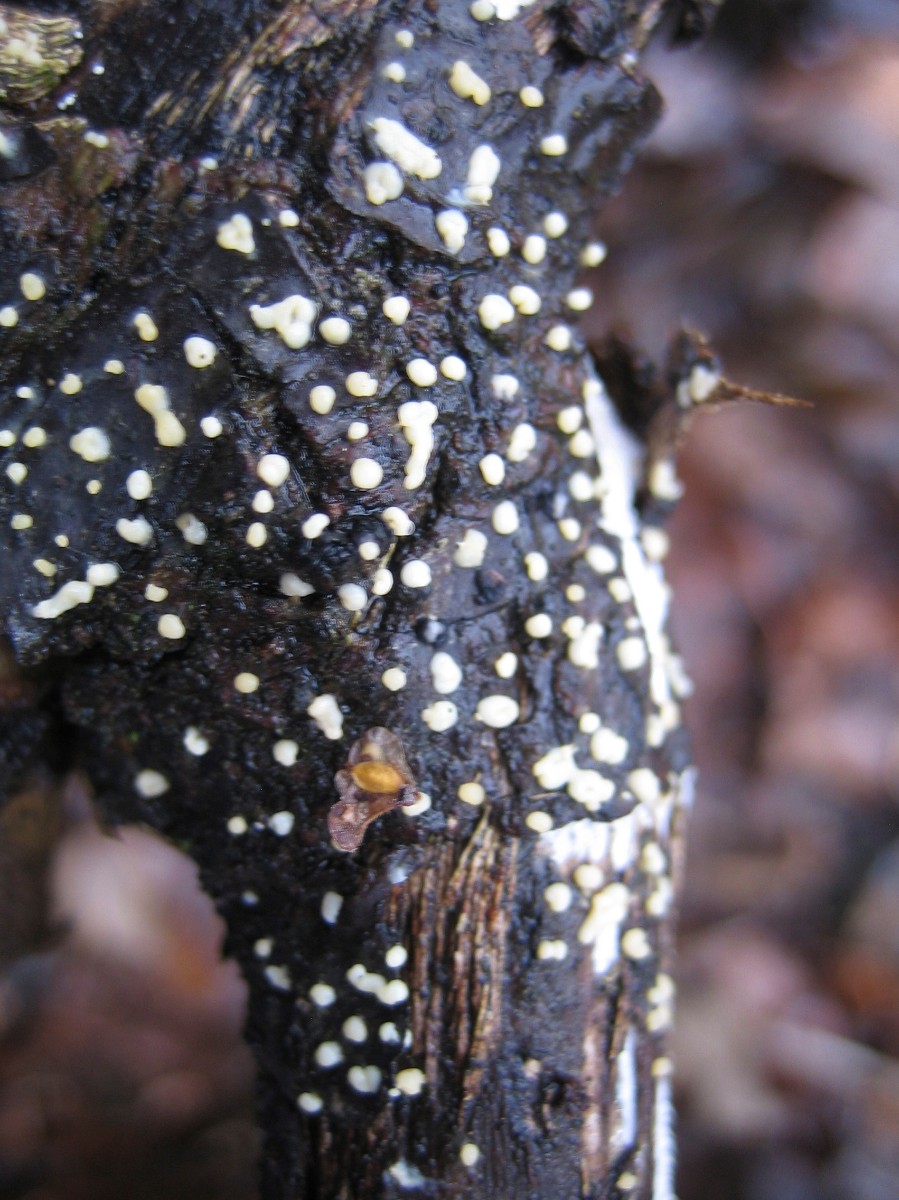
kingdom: Fungi
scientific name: Fungi
